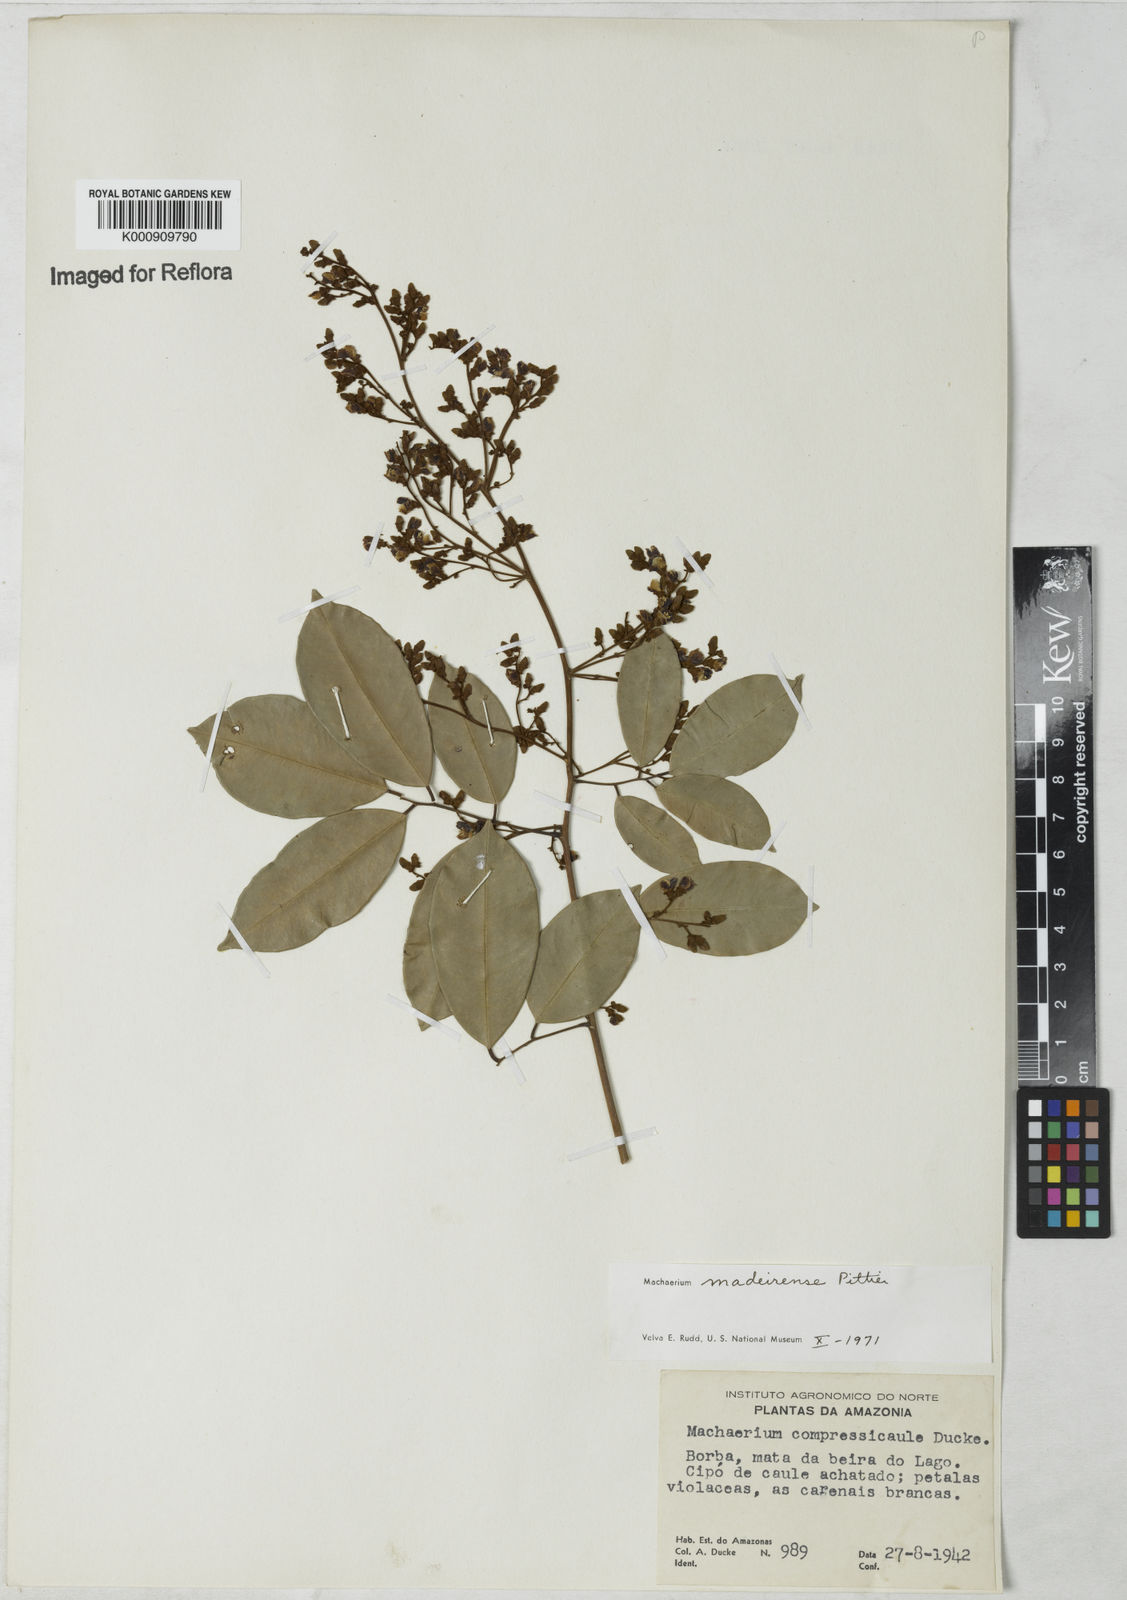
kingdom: Plantae
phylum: Tracheophyta
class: Magnoliopsida
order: Fabales
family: Fabaceae
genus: Machaerium
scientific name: Machaerium madeirense
